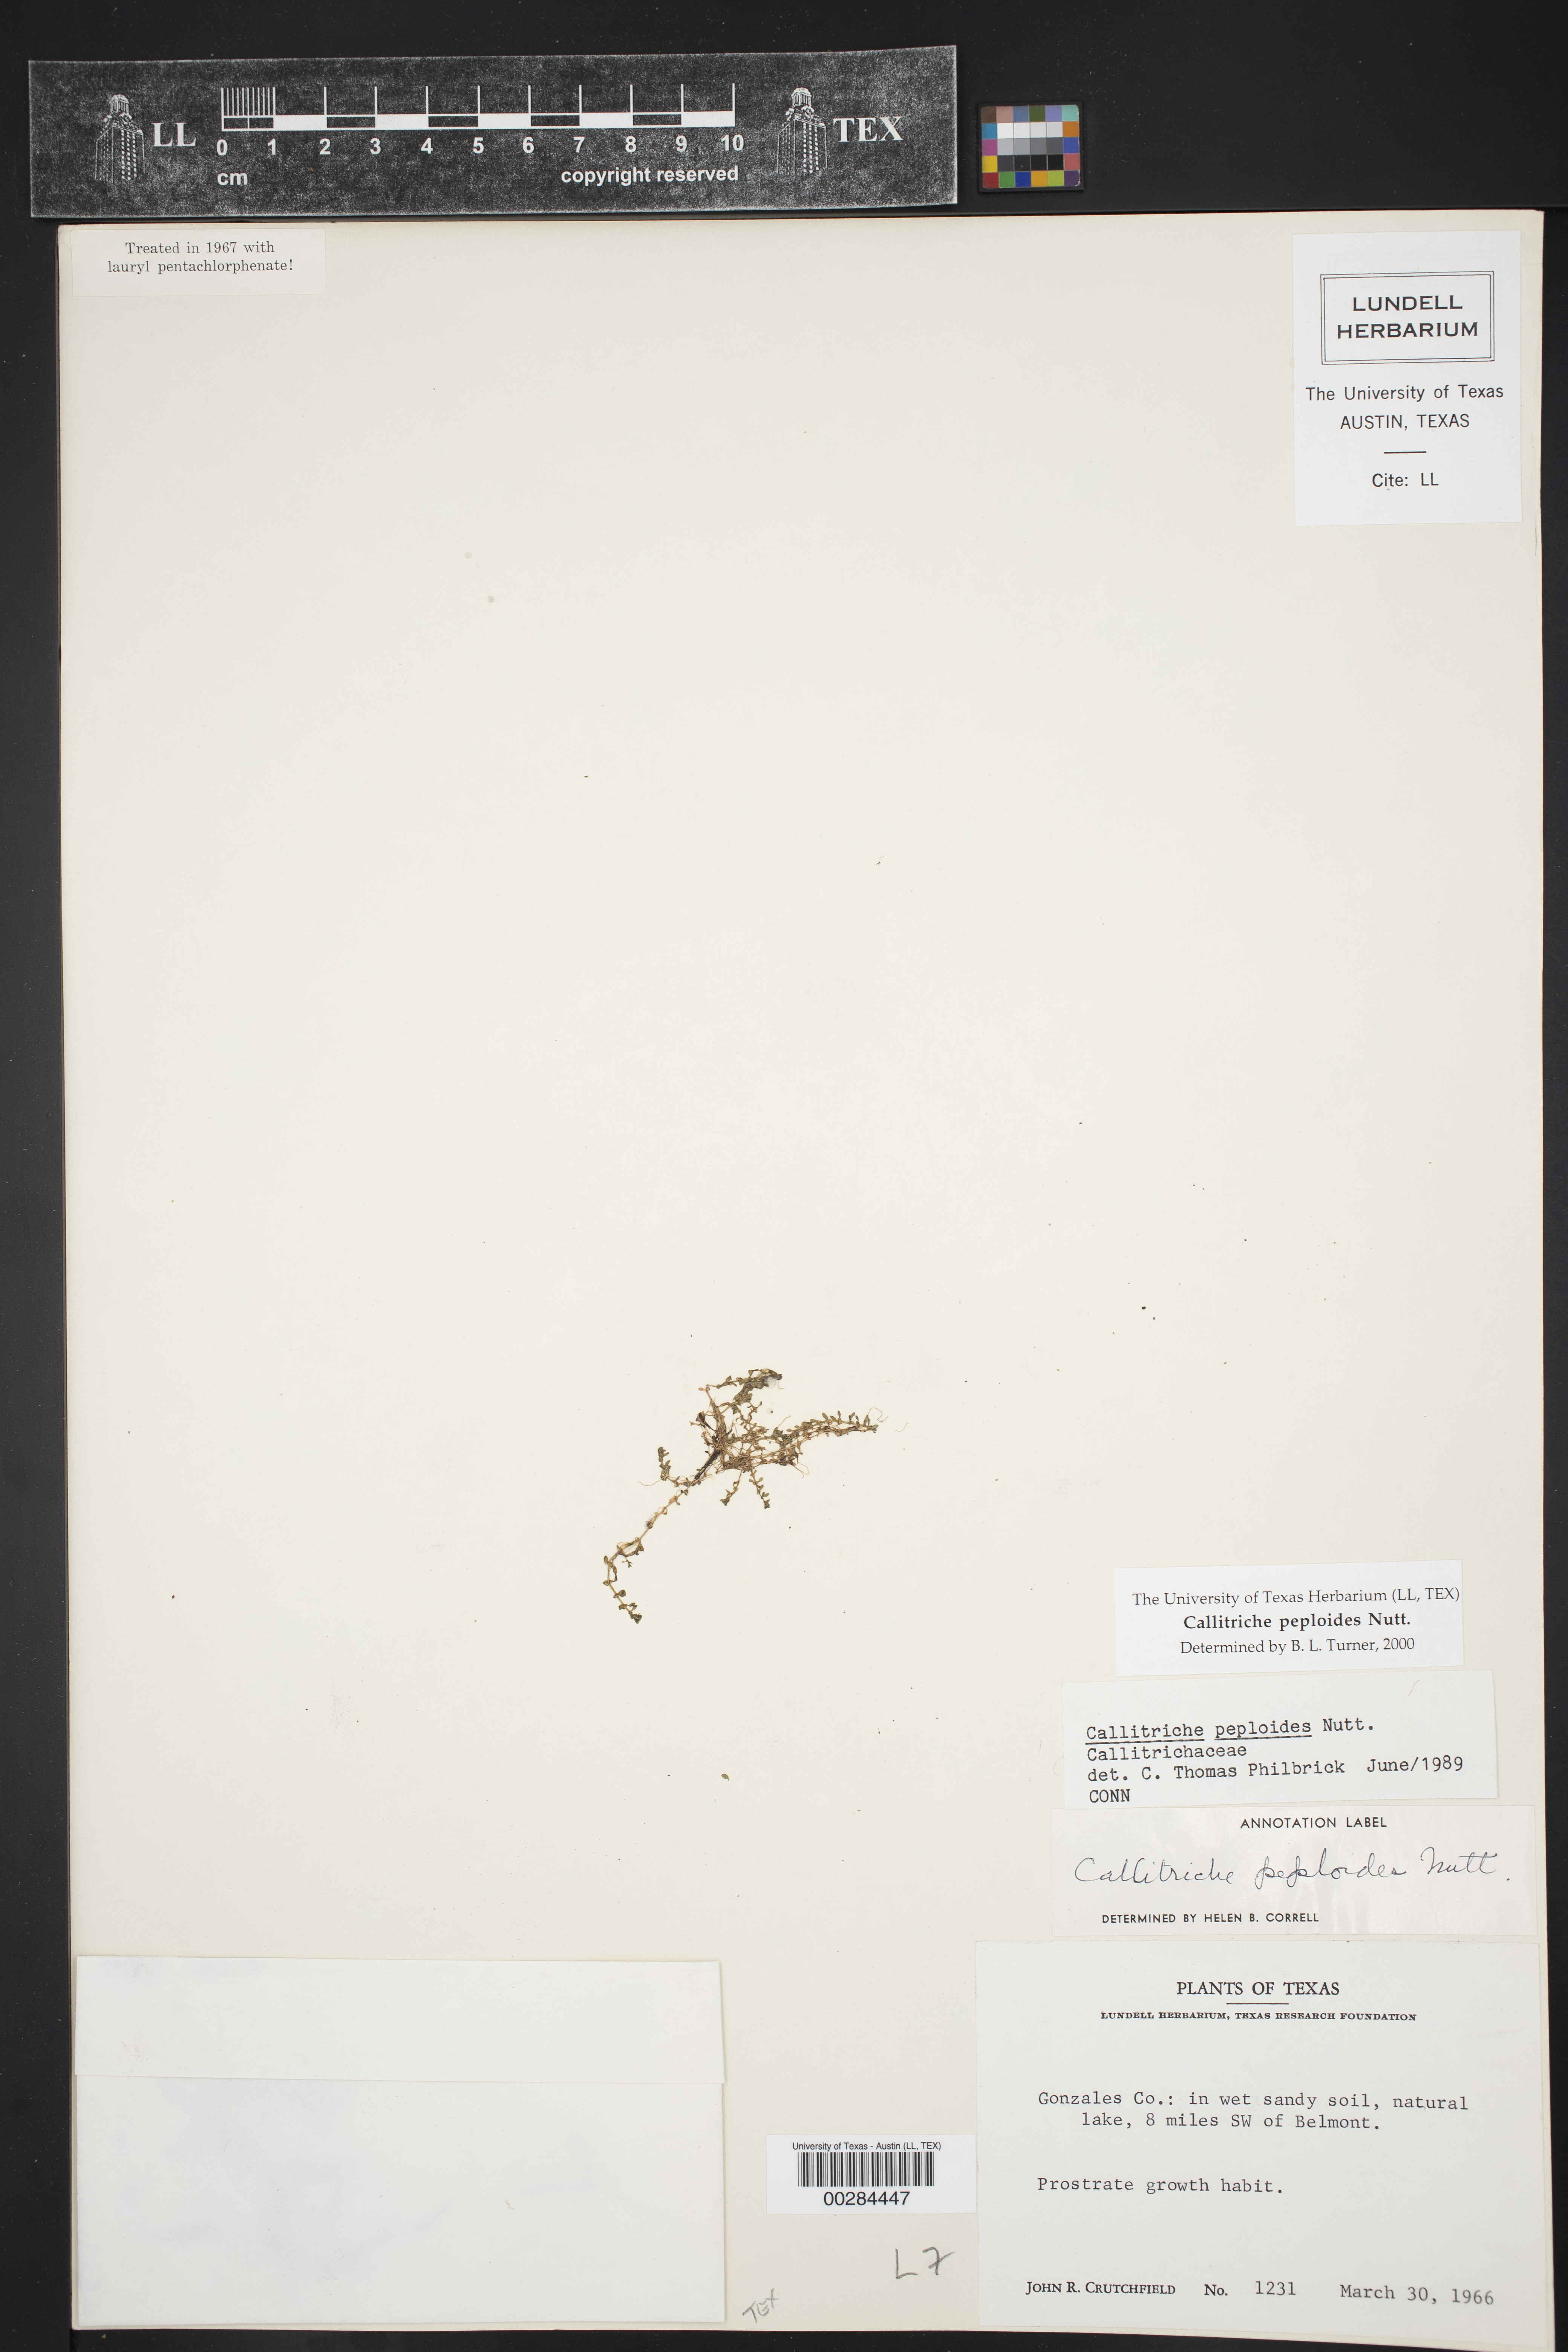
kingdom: Plantae
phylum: Tracheophyta
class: Magnoliopsida
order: Lamiales
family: Plantaginaceae
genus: Callitriche
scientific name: Callitriche peploides
